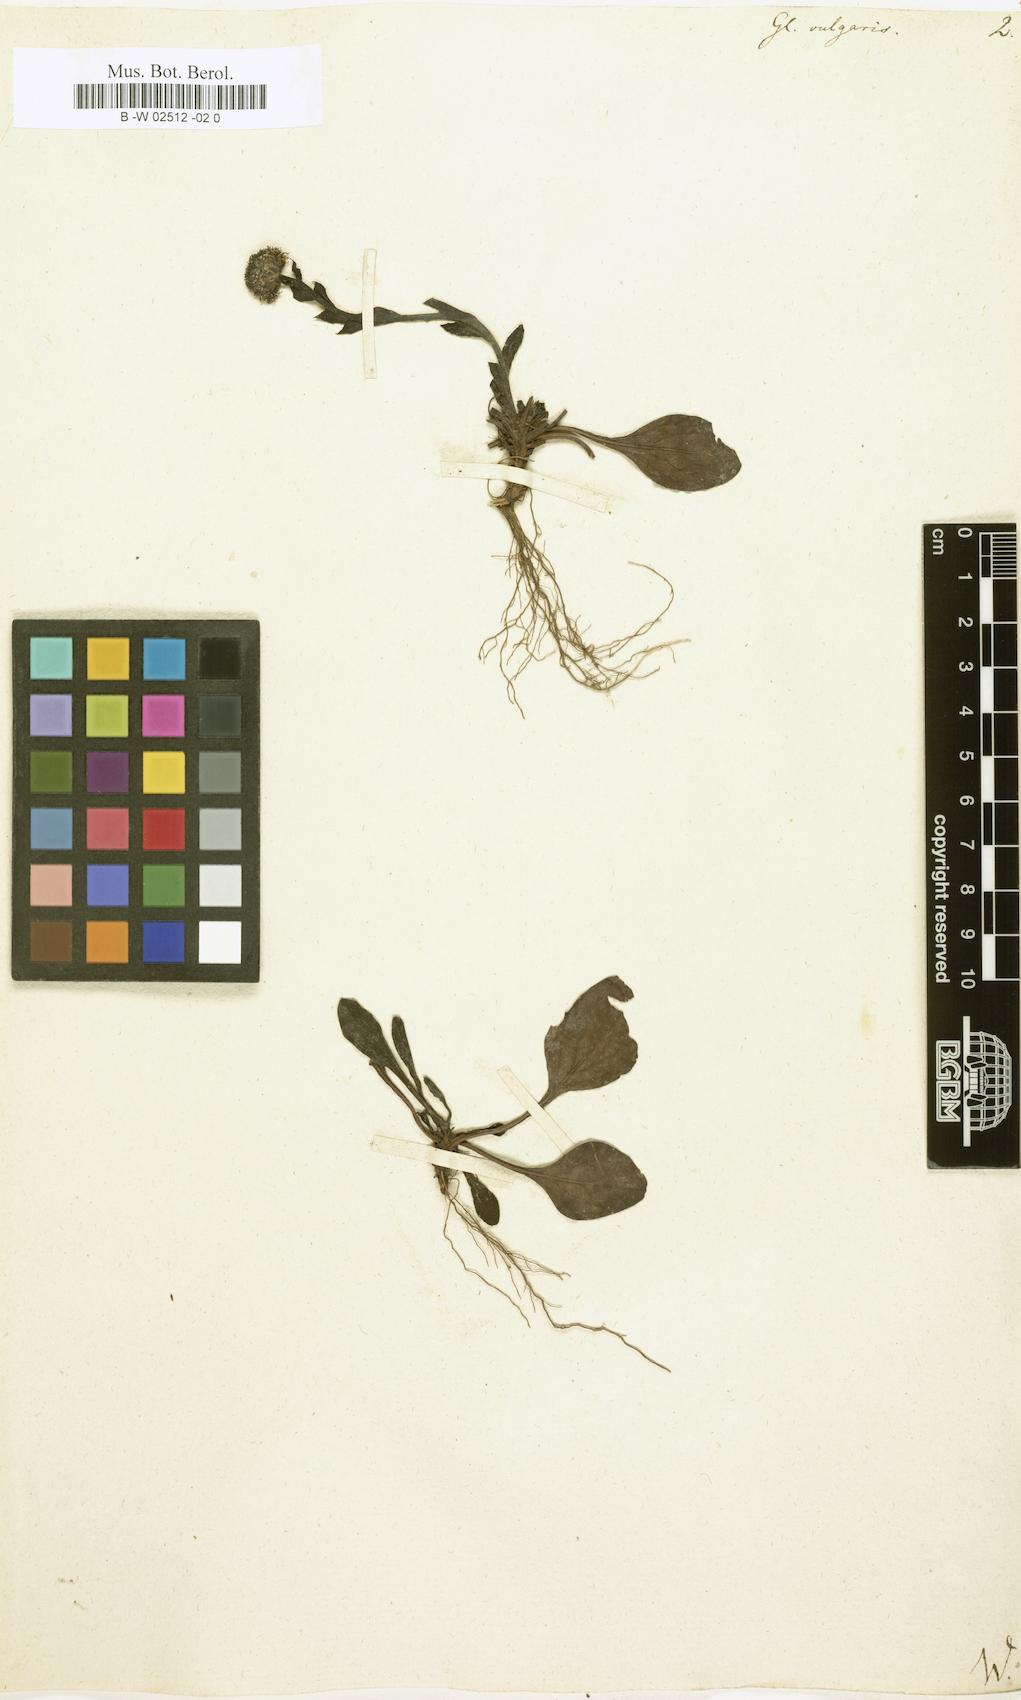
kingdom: Plantae
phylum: Tracheophyta
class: Magnoliopsida
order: Lamiales
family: Plantaginaceae
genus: Globularia
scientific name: Globularia vulgaris
